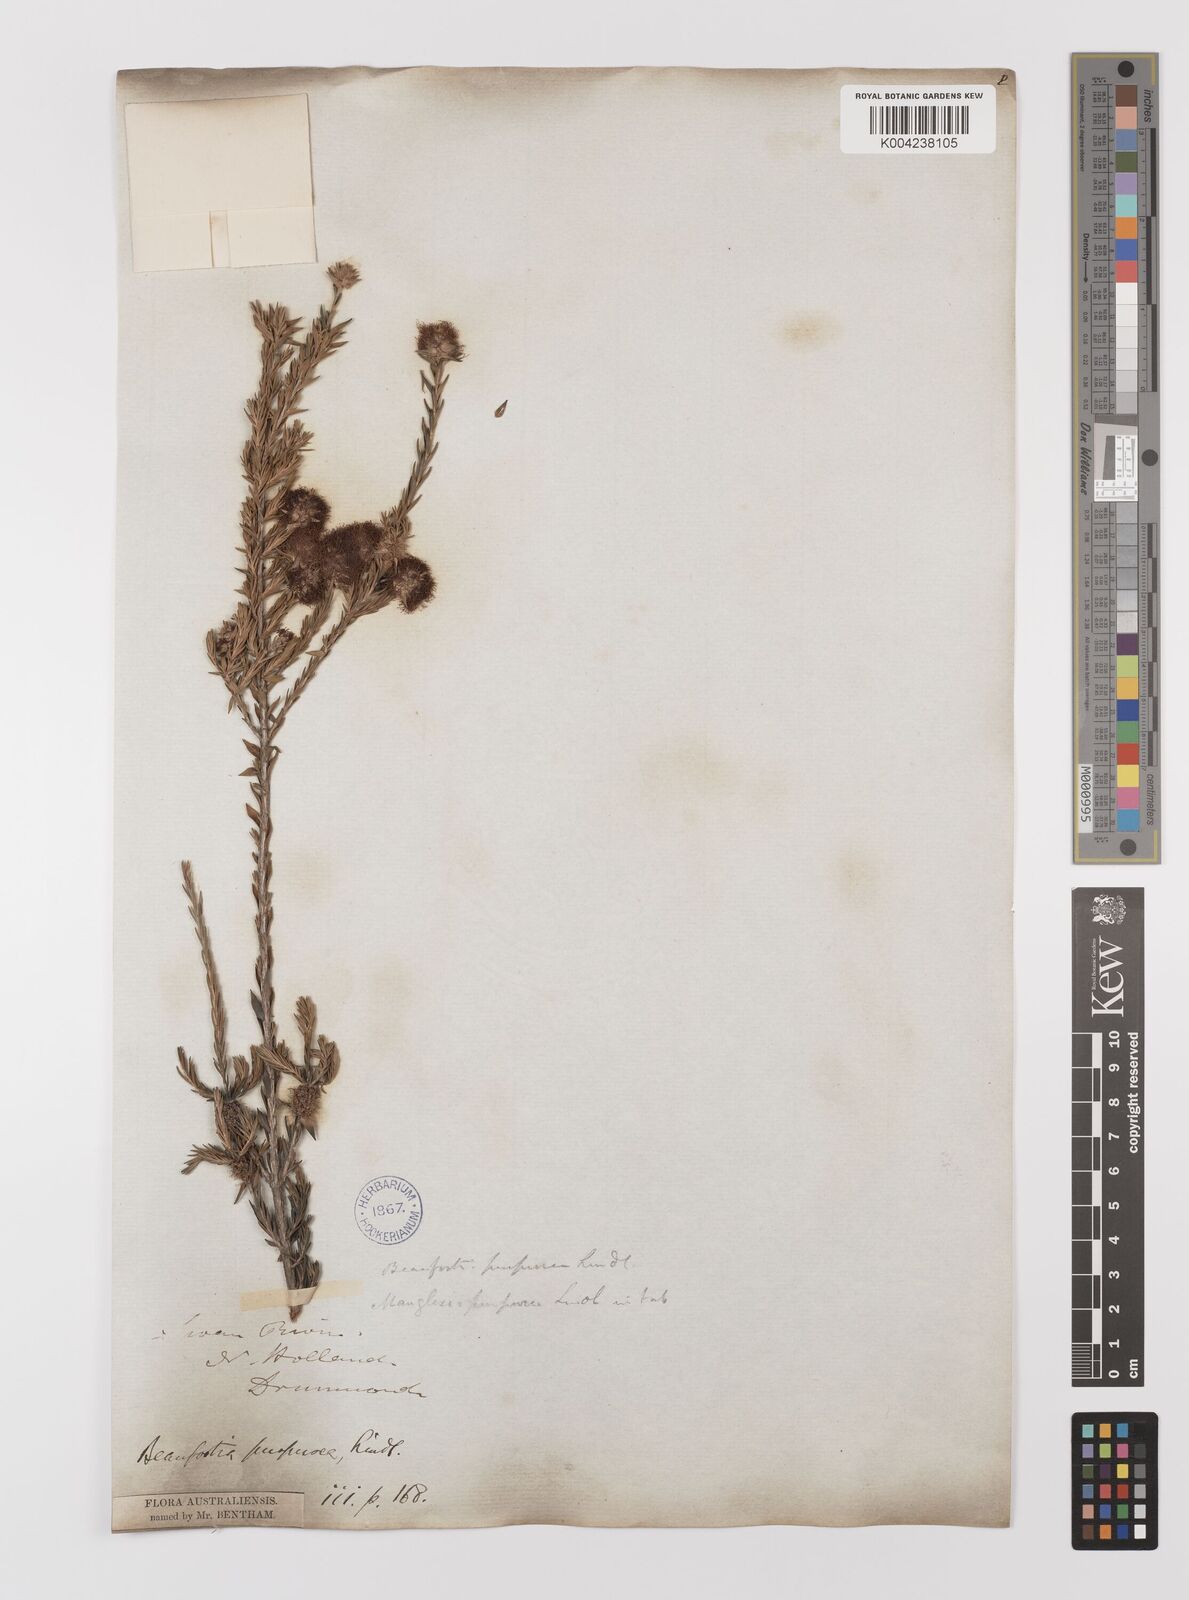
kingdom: Plantae
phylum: Tracheophyta
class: Magnoliopsida
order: Myrtales
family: Myrtaceae
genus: Melaleuca
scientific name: Melaleuca purpurea
